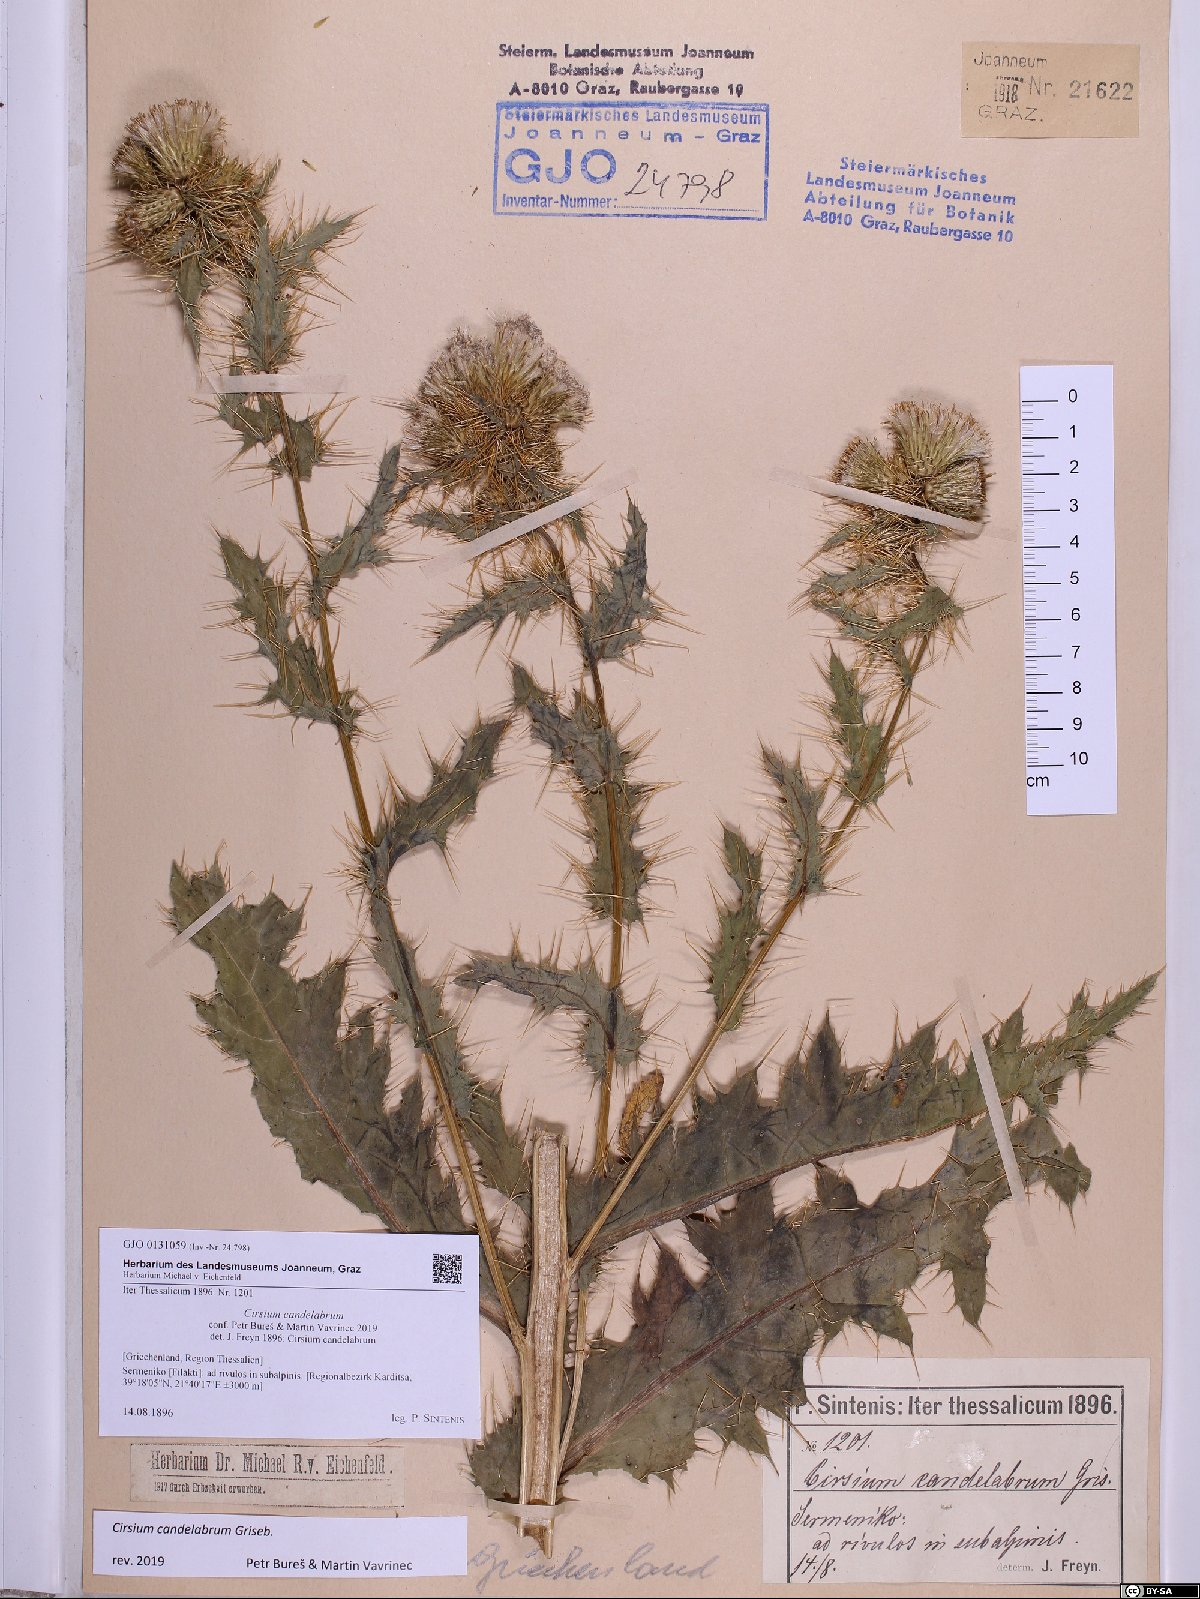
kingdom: Plantae
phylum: Tracheophyta
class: Magnoliopsida
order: Asterales
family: Asteraceae
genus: Cirsium
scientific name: Cirsium candelabrum
